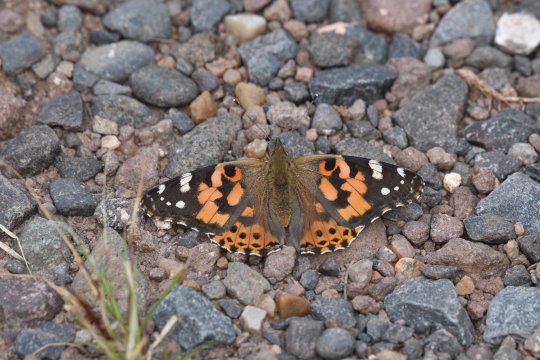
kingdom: Animalia
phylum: Arthropoda
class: Insecta
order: Lepidoptera
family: Nymphalidae
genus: Vanessa
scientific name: Vanessa cardui
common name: Painted Lady
